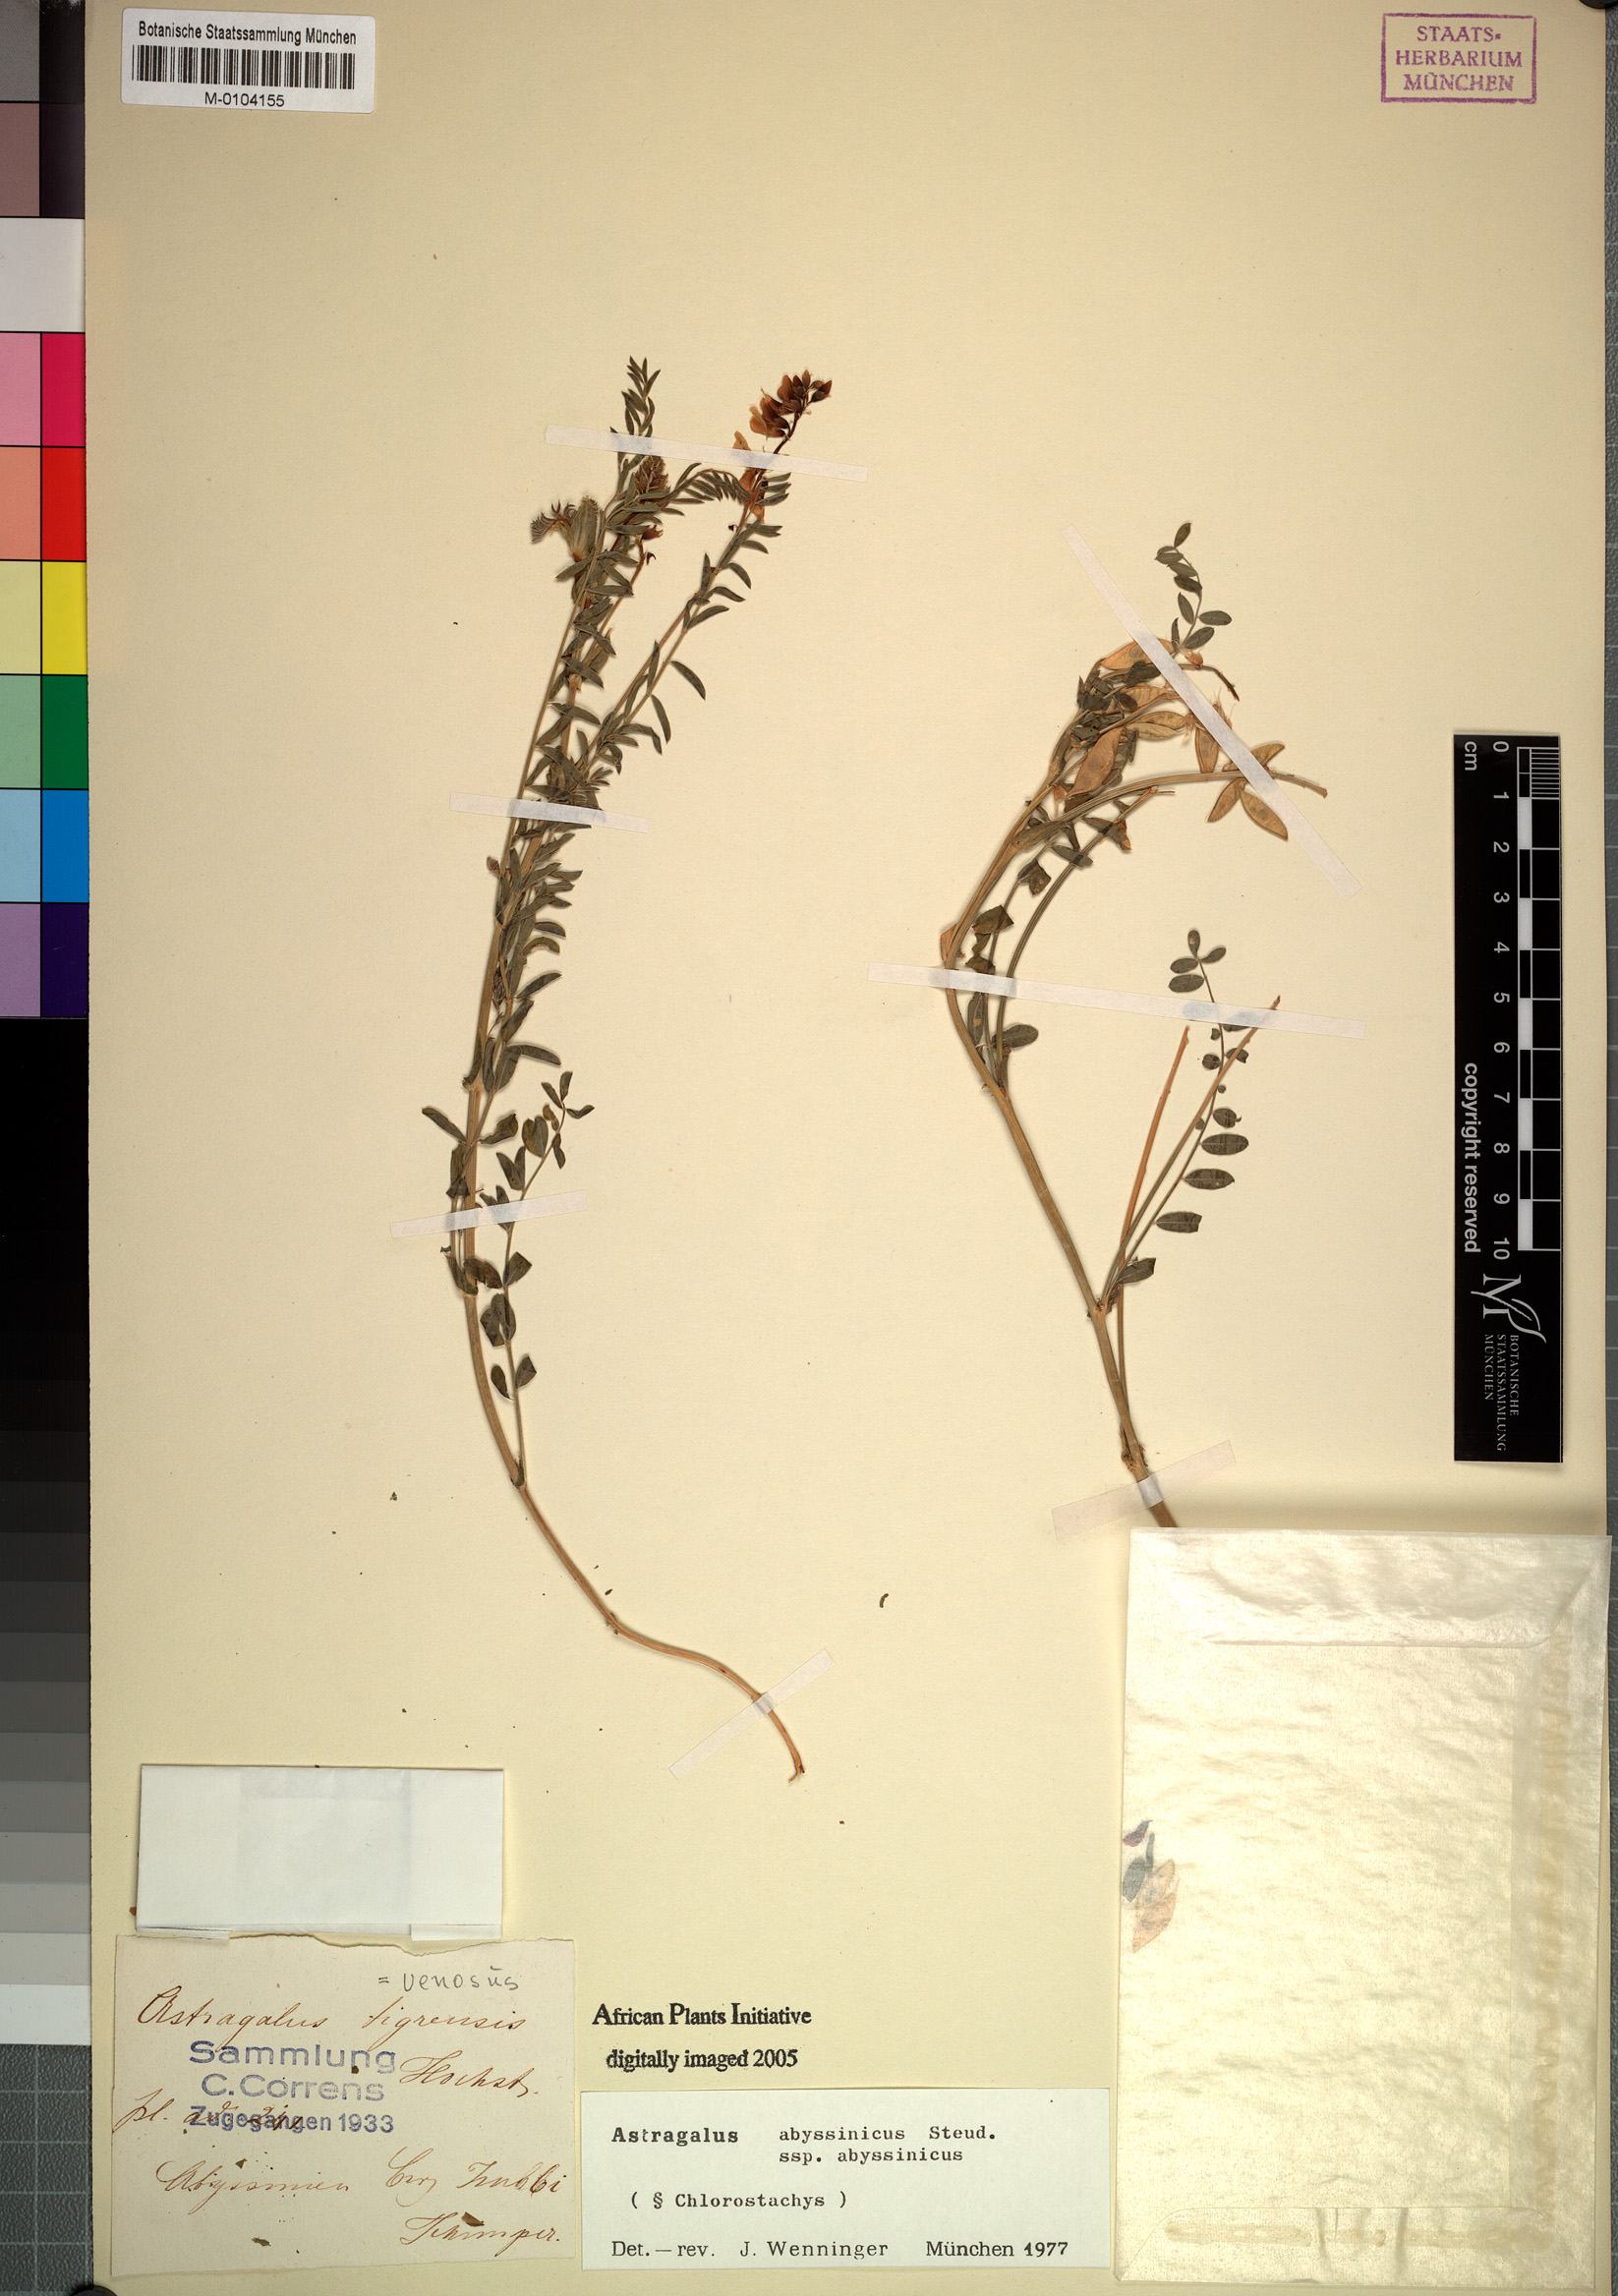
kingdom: Plantae
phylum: Tracheophyta
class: Magnoliopsida
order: Fabales
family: Fabaceae
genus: Astragalus
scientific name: Astragalus atropilosulus
